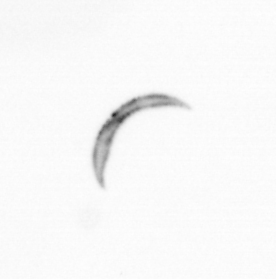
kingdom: Chromista
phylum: Ochrophyta
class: Bacillariophyceae
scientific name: Bacillariophyceae
